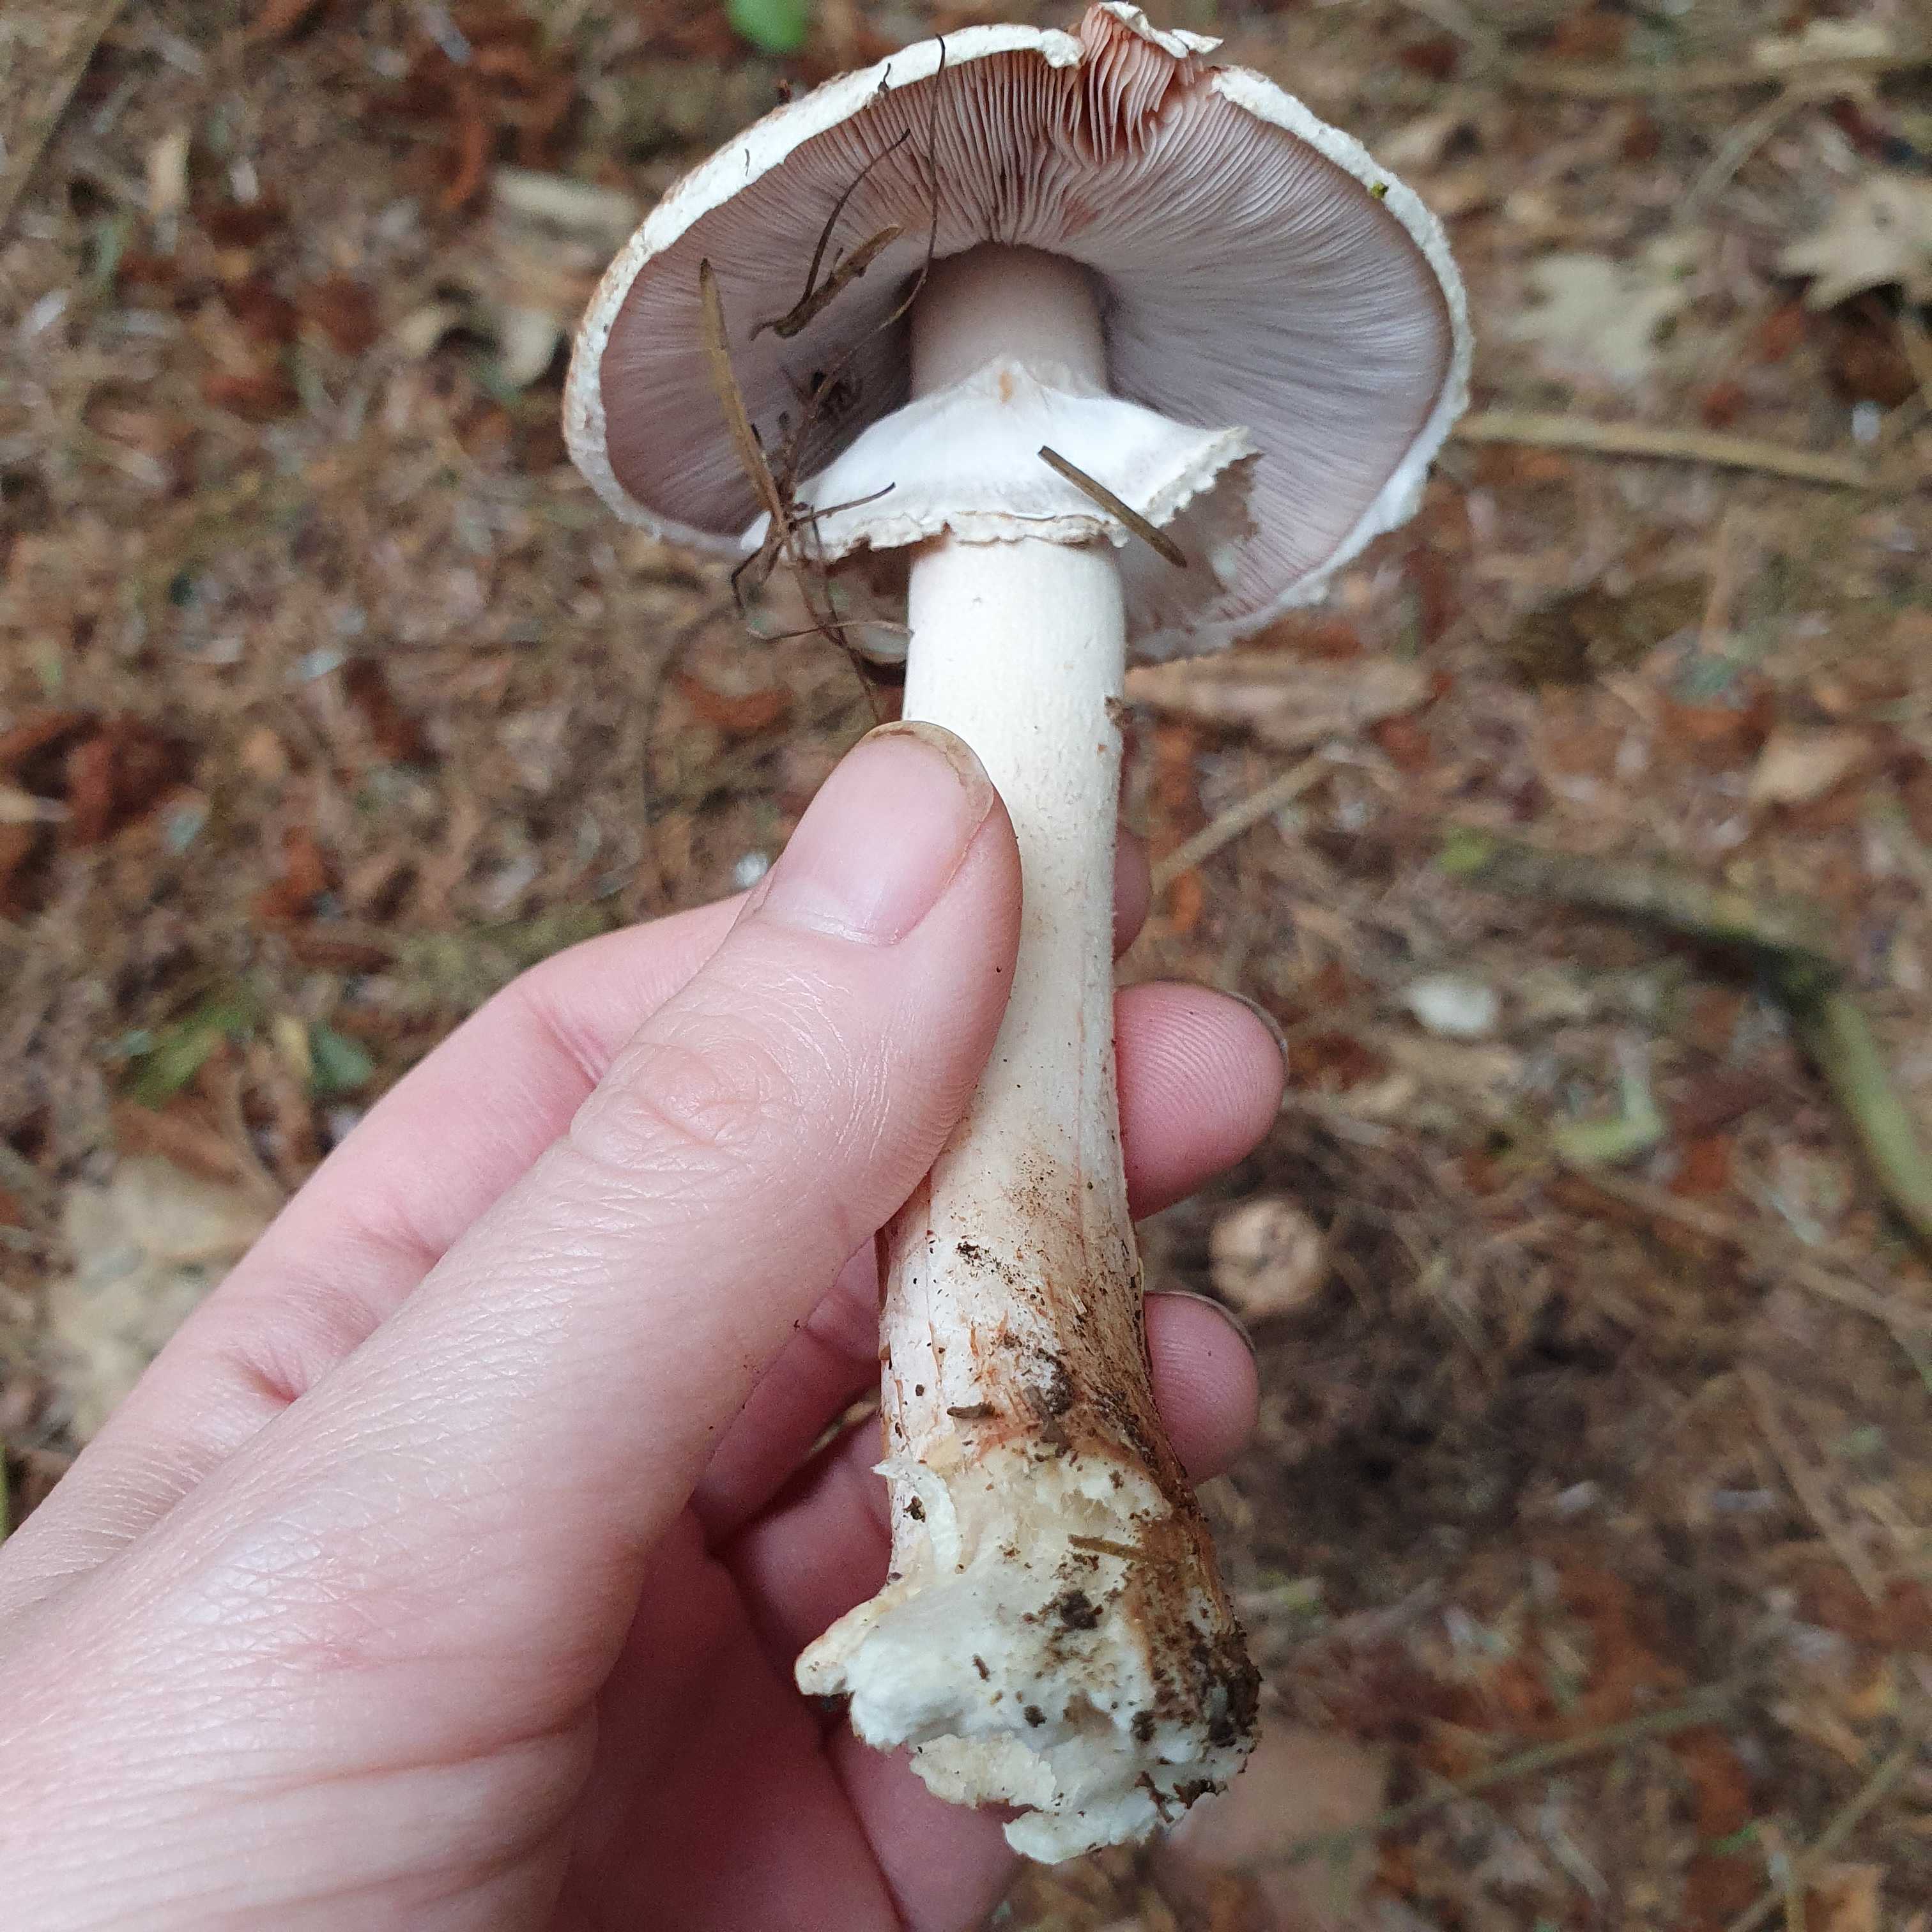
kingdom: Fungi
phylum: Basidiomycota
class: Agaricomycetes
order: Agaricales
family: Agaricaceae
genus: Agaricus
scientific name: Agaricus sylvaticus
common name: lille blod-champignon
